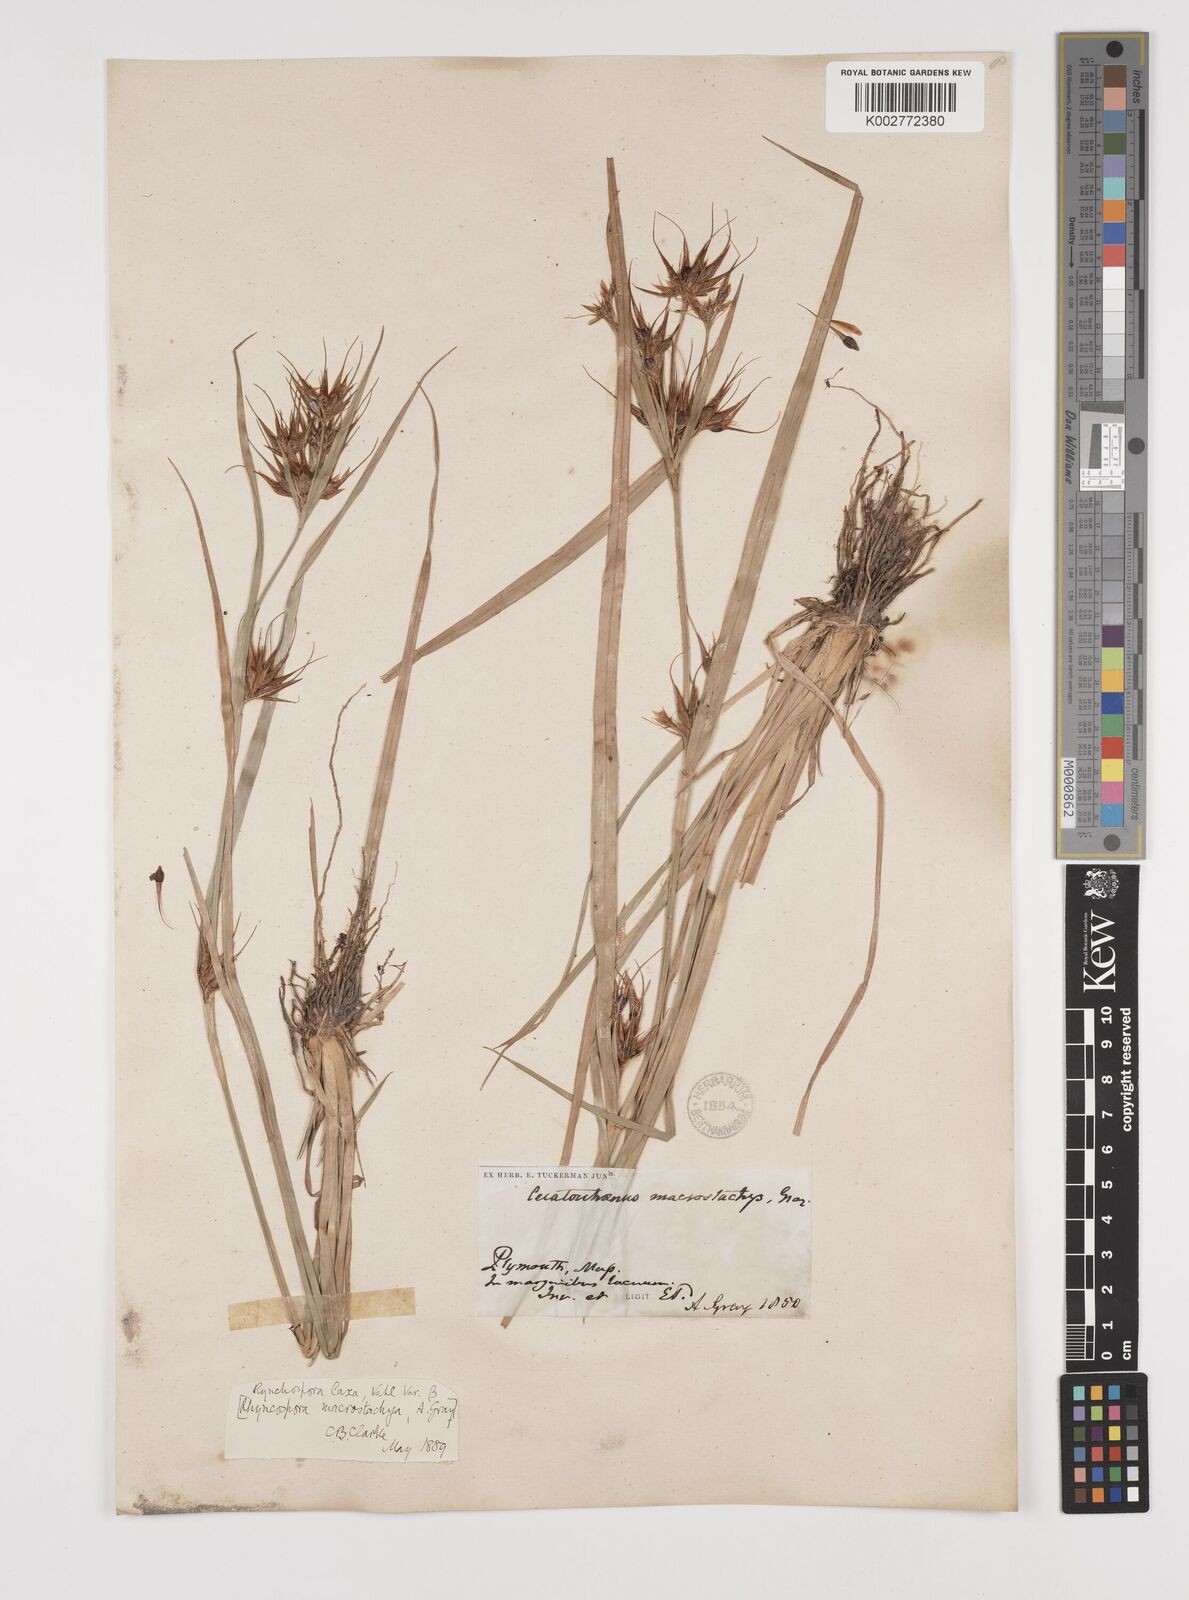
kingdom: Plantae
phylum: Tracheophyta
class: Liliopsida
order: Poales
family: Cyperaceae
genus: Rhynchospora
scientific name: Rhynchospora corniculata
